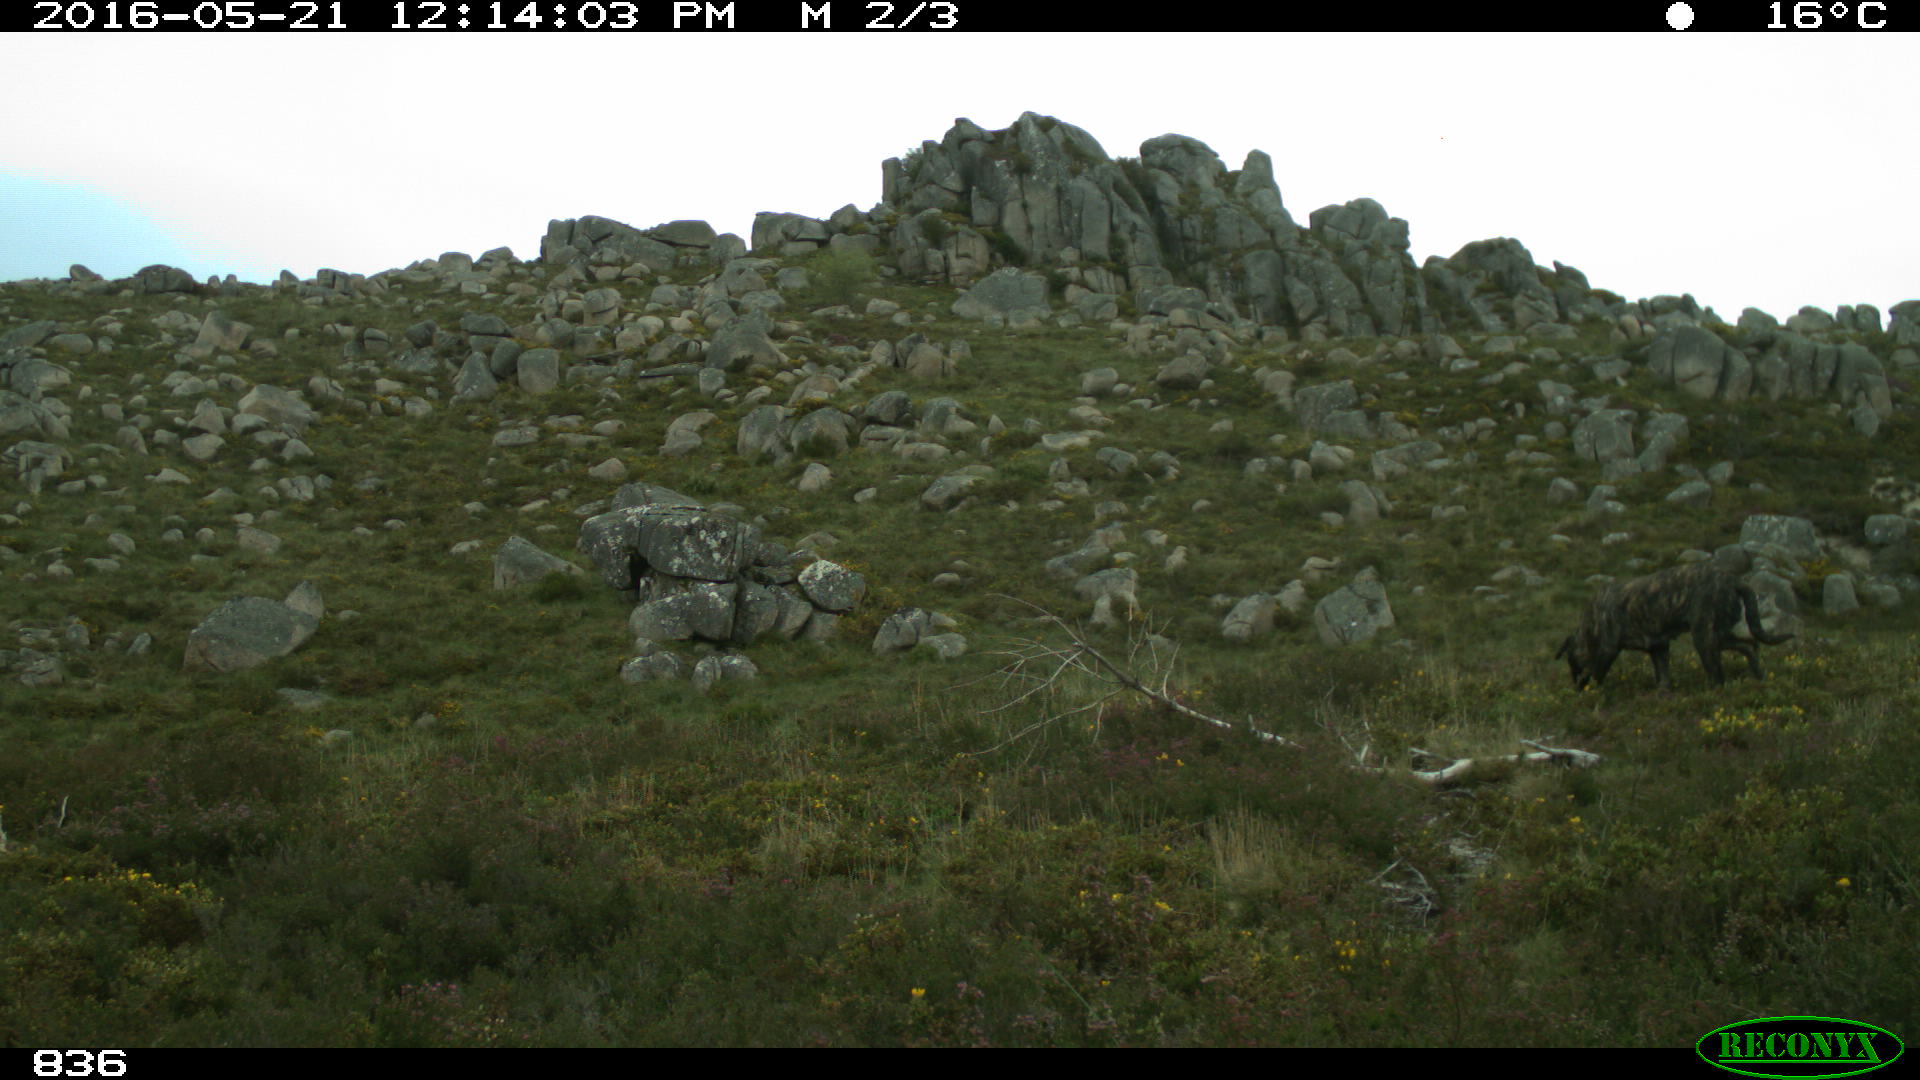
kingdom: Animalia
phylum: Chordata
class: Mammalia
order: Carnivora
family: Canidae
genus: Canis
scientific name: Canis lupus
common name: Gray wolf
